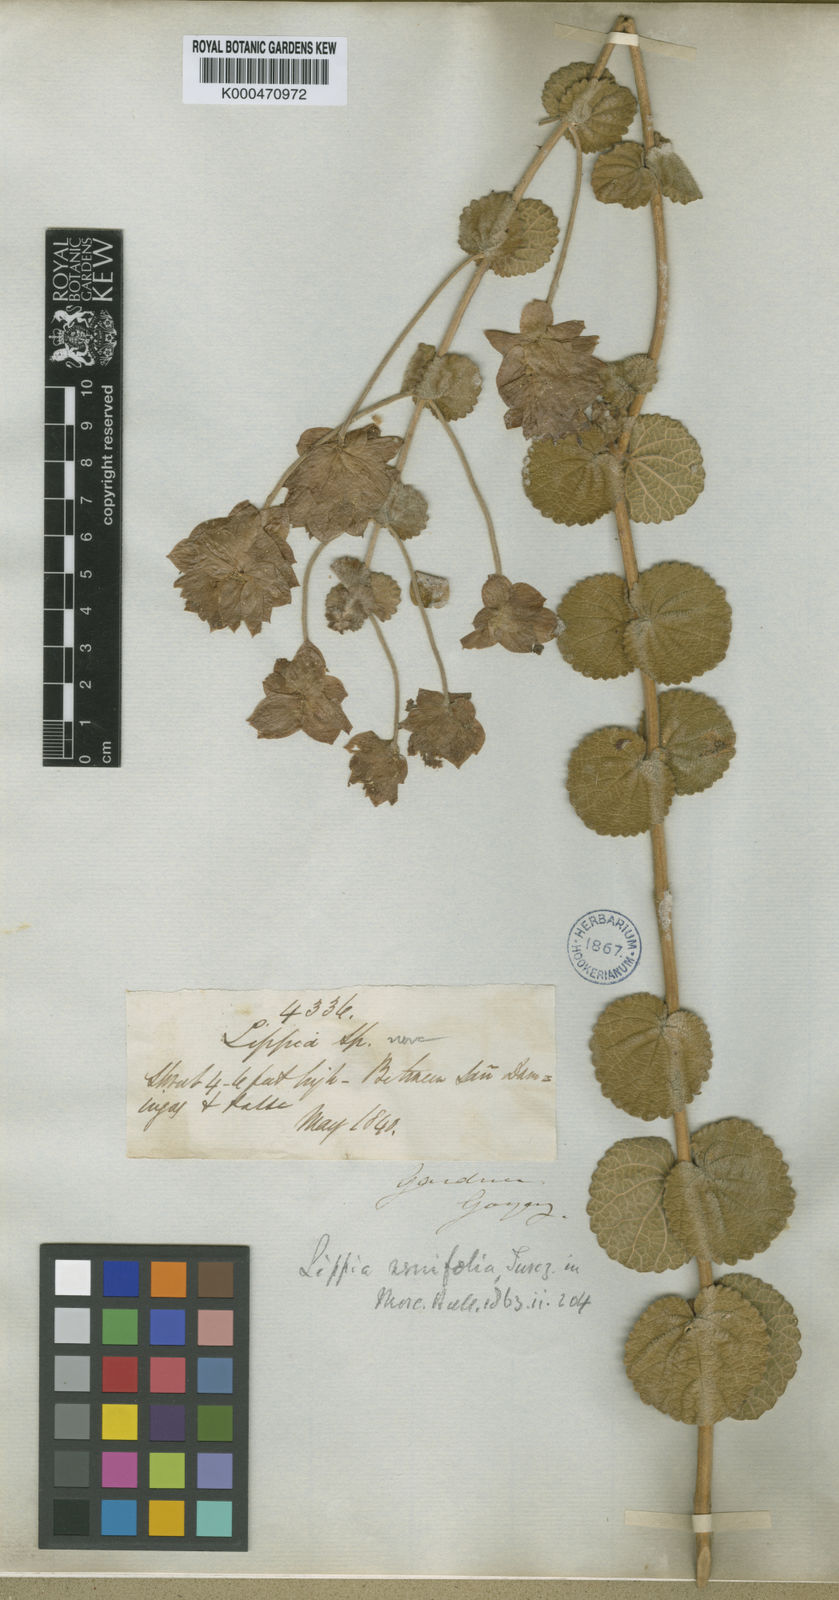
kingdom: Plantae
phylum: Tracheophyta
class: Magnoliopsida
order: Lamiales
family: Verbenaceae
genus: Lippia
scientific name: Lippia renifolia
